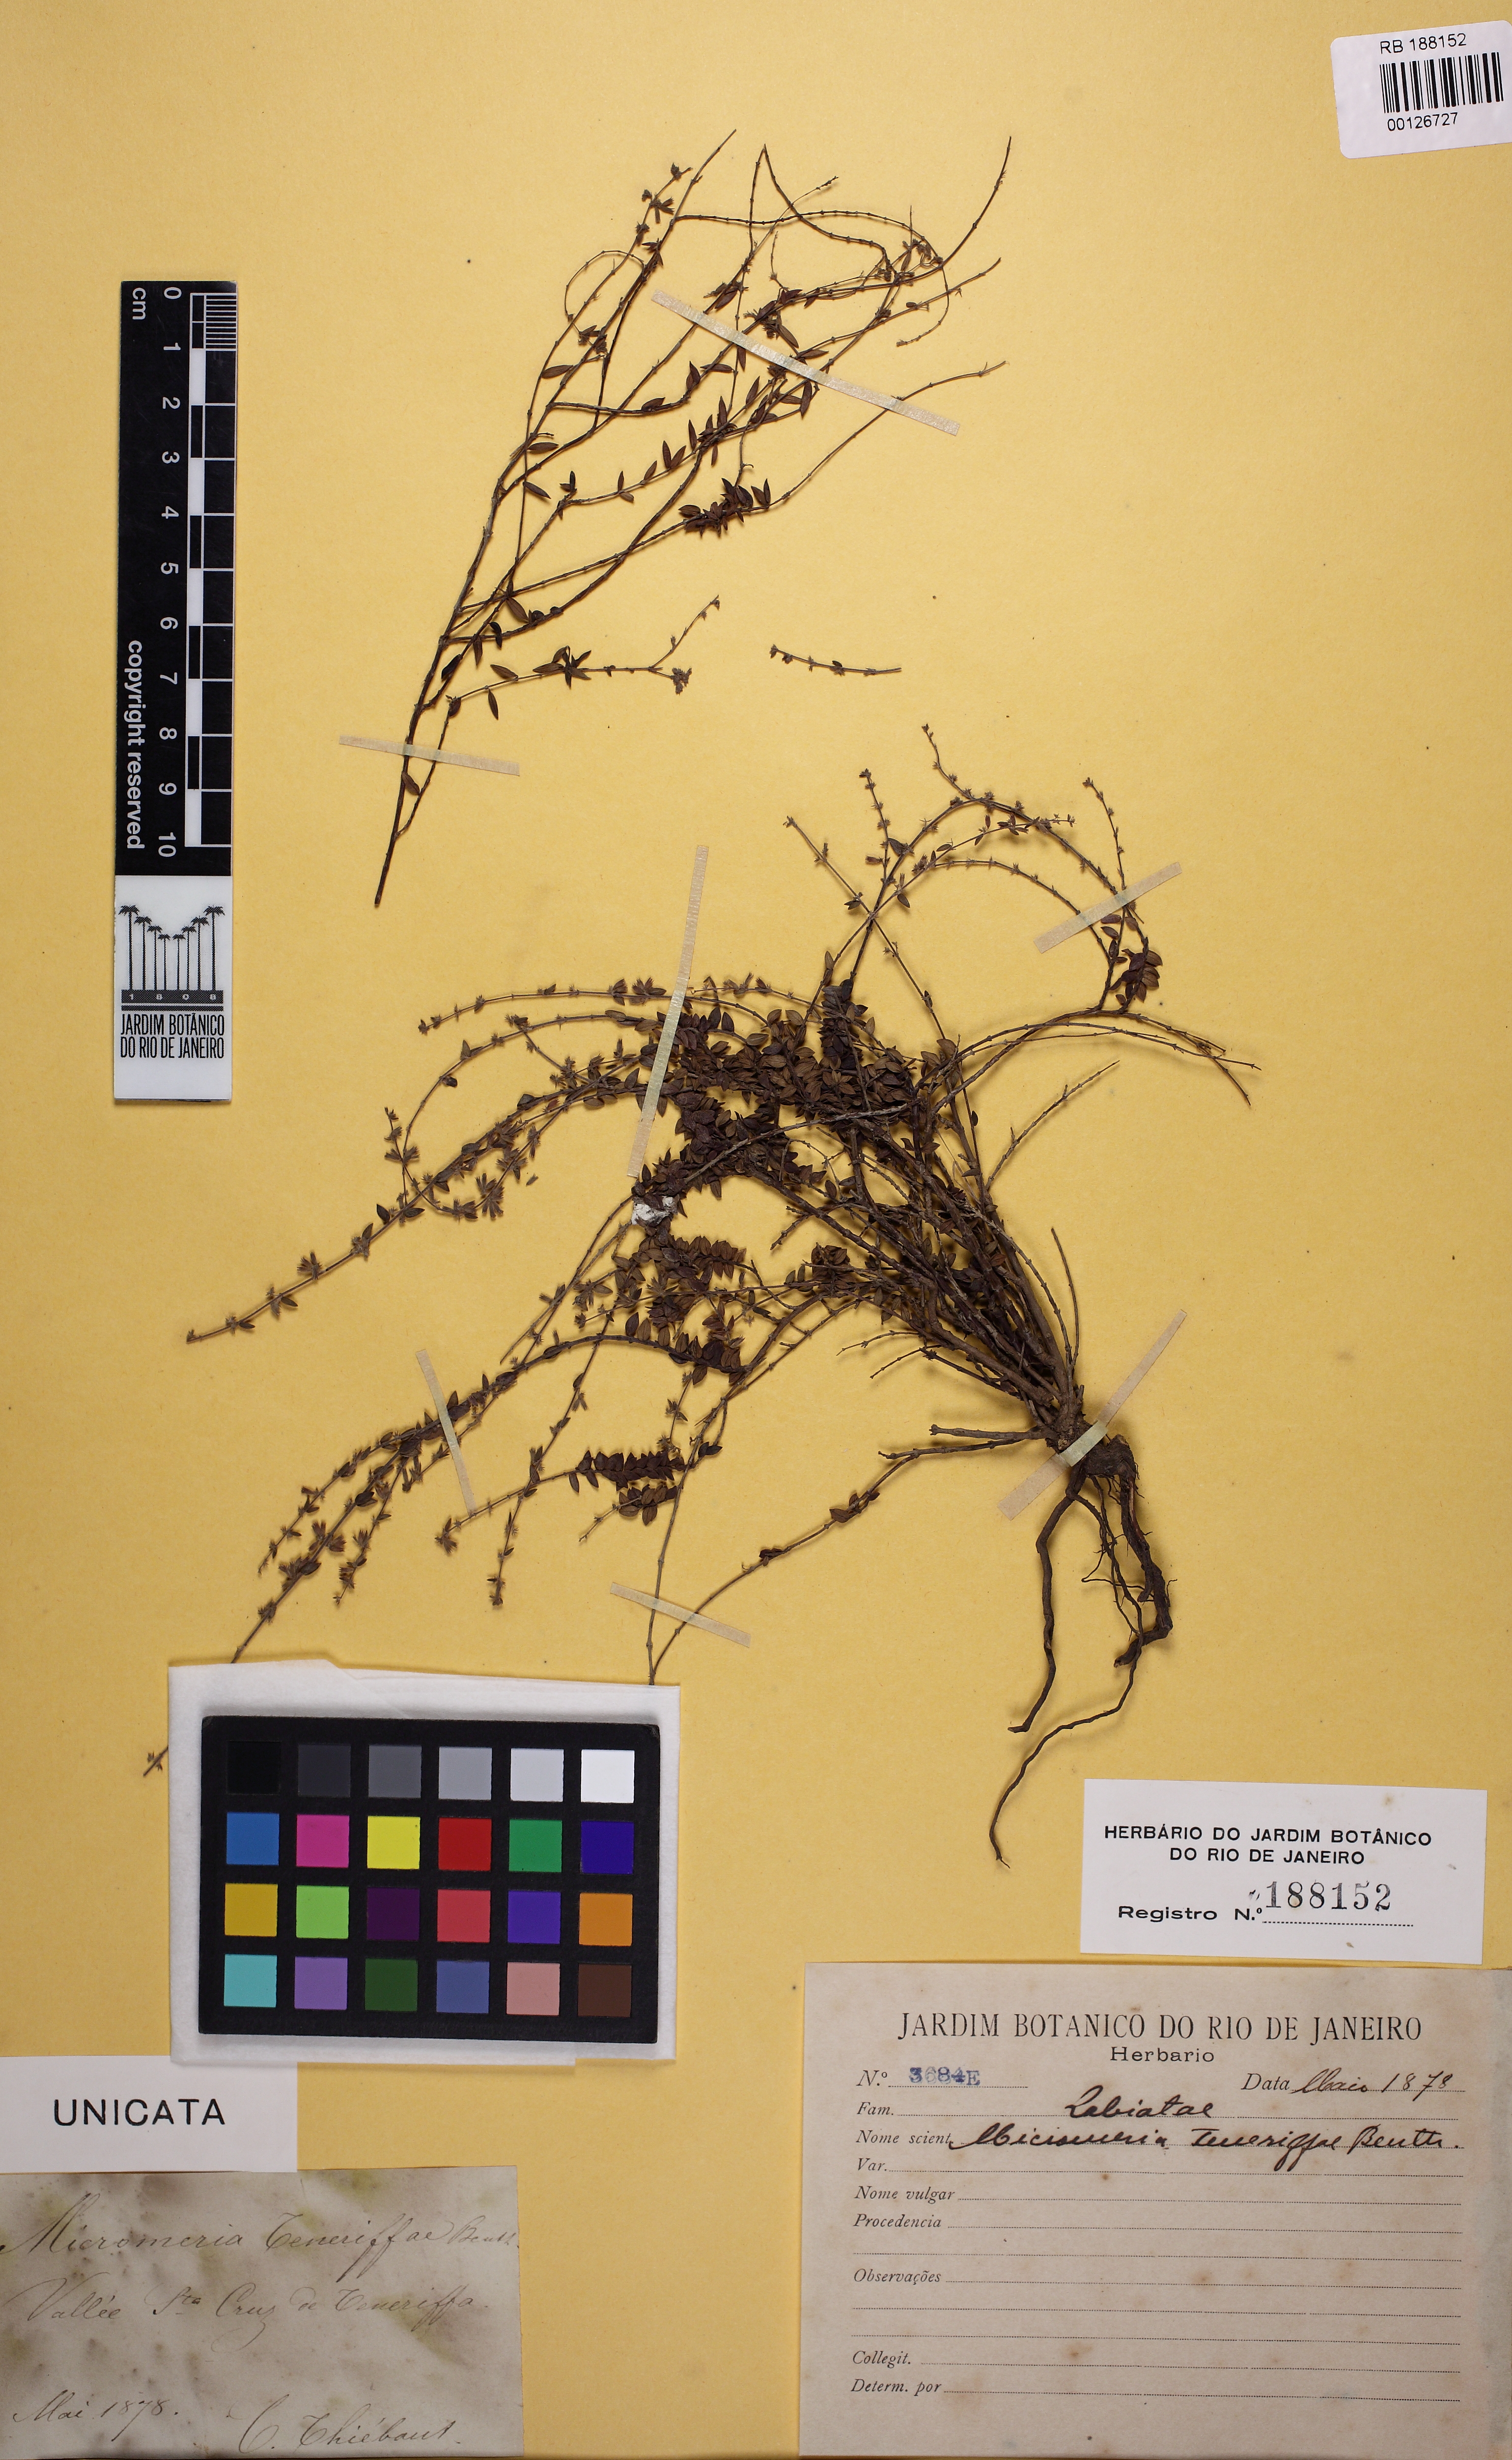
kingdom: Plantae
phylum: Tracheophyta
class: Magnoliopsida
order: Lamiales
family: Lamiaceae
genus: Micromeria
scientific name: Micromeria teneriffae
